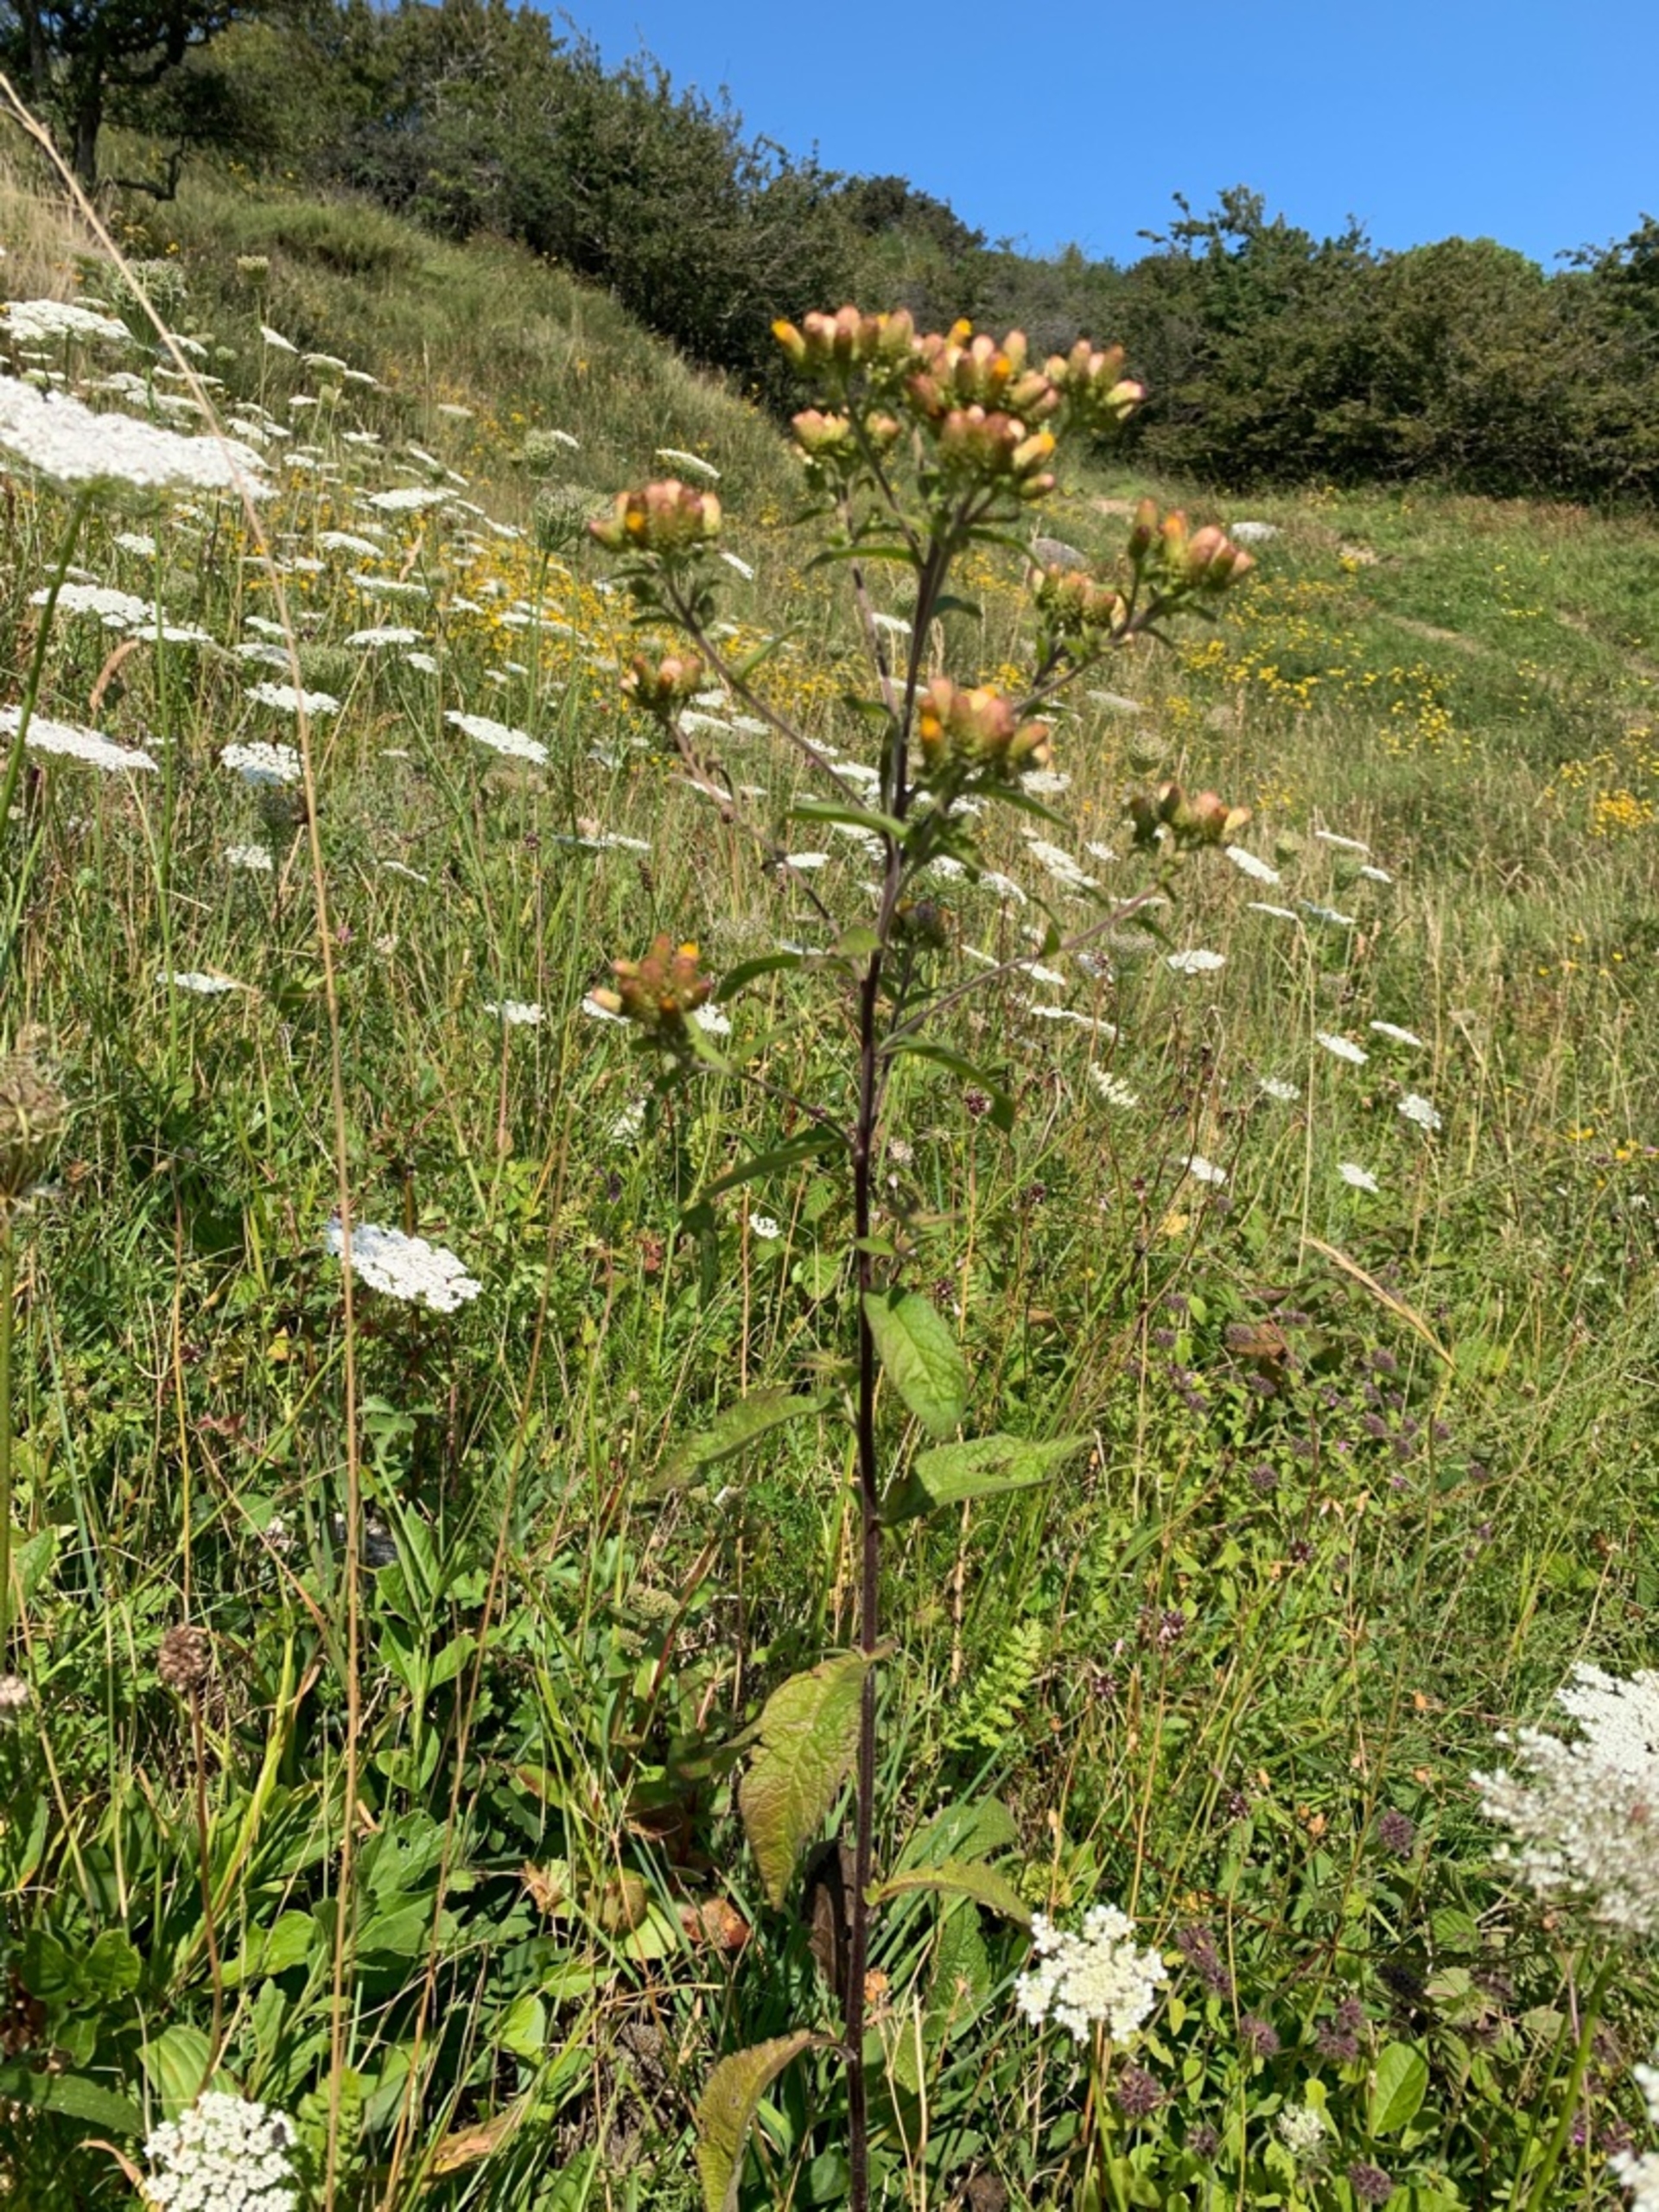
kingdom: Plantae
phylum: Tracheophyta
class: Magnoliopsida
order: Asterales
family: Asteraceae
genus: Pentanema
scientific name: Pentanema squarrosum
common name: Trekløft-alant
